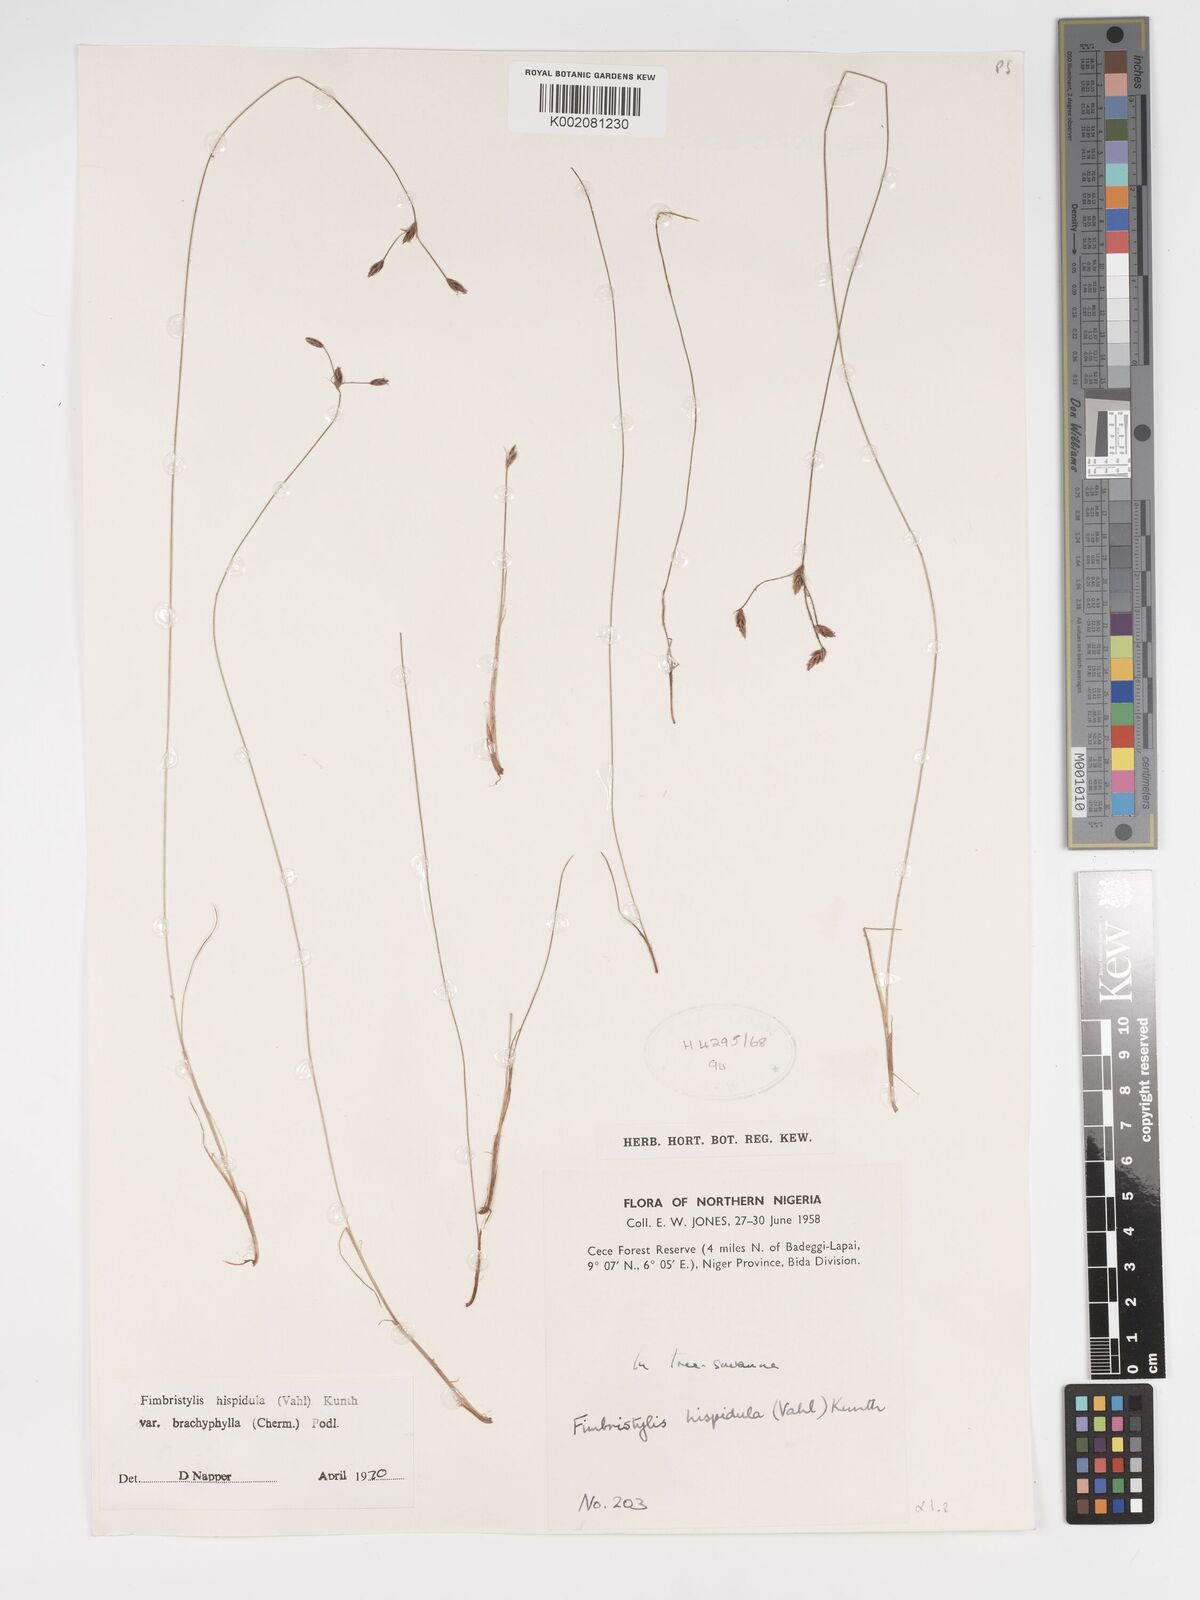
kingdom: Plantae
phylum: Tracheophyta
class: Liliopsida
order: Poales
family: Cyperaceae
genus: Bulbostylis
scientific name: Bulbostylis hispidula
